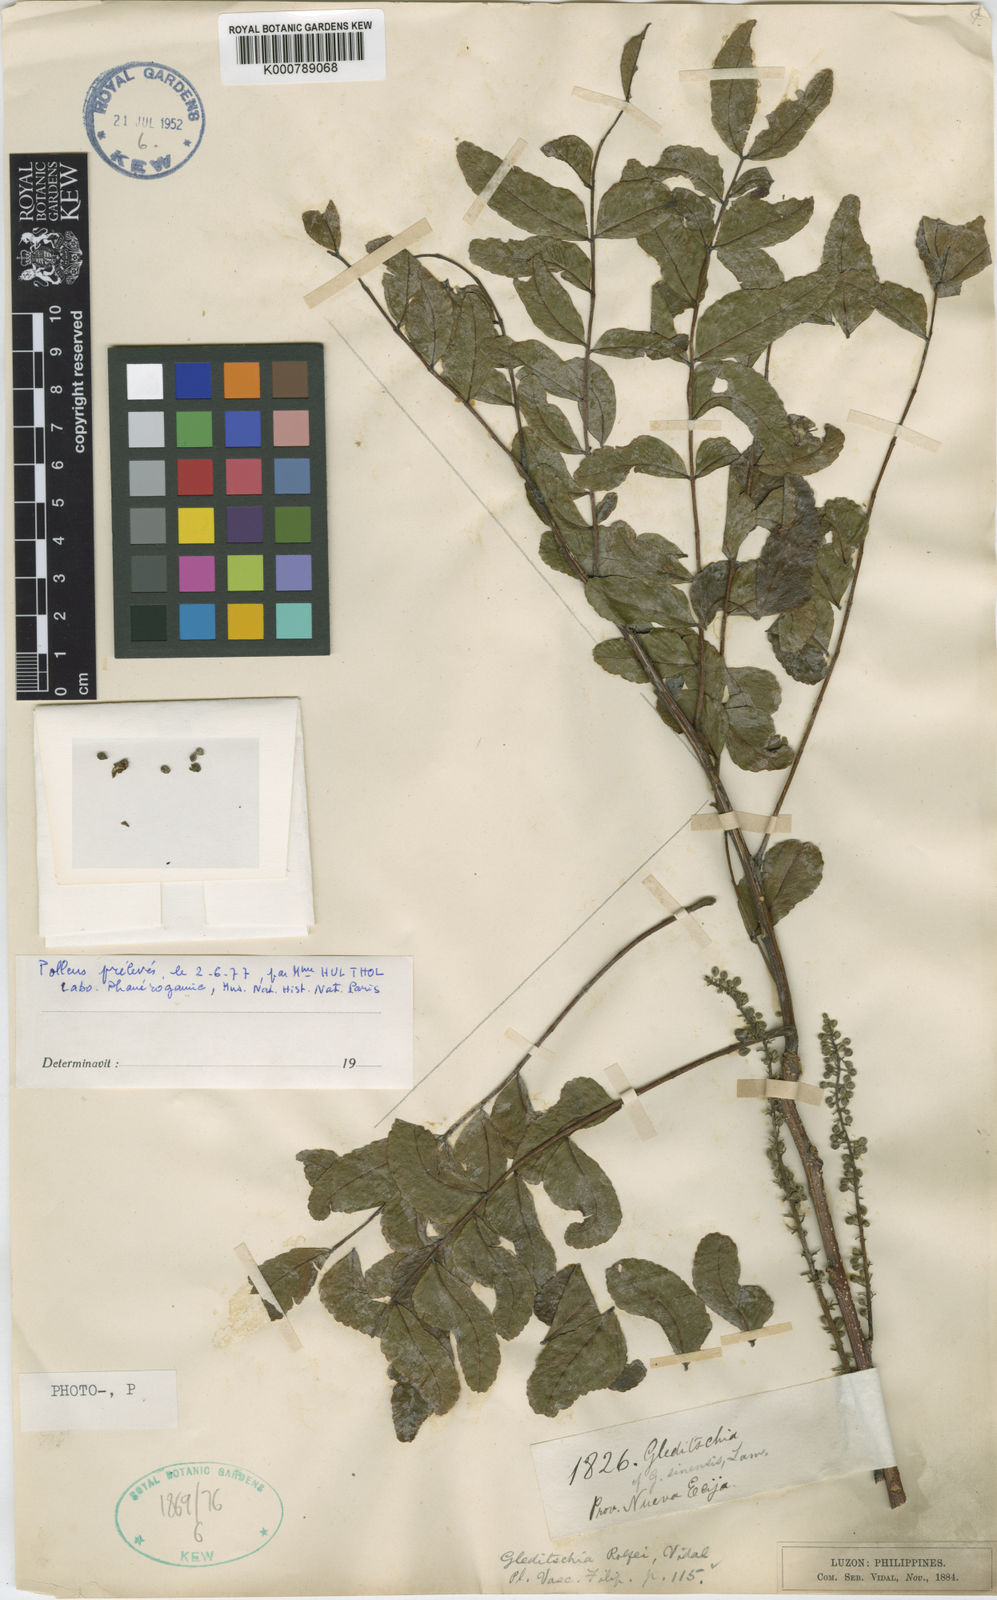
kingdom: Plantae
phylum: Tracheophyta
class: Magnoliopsida
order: Fabales
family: Fabaceae
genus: Gleditsia
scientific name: Gleditsia rolfei
